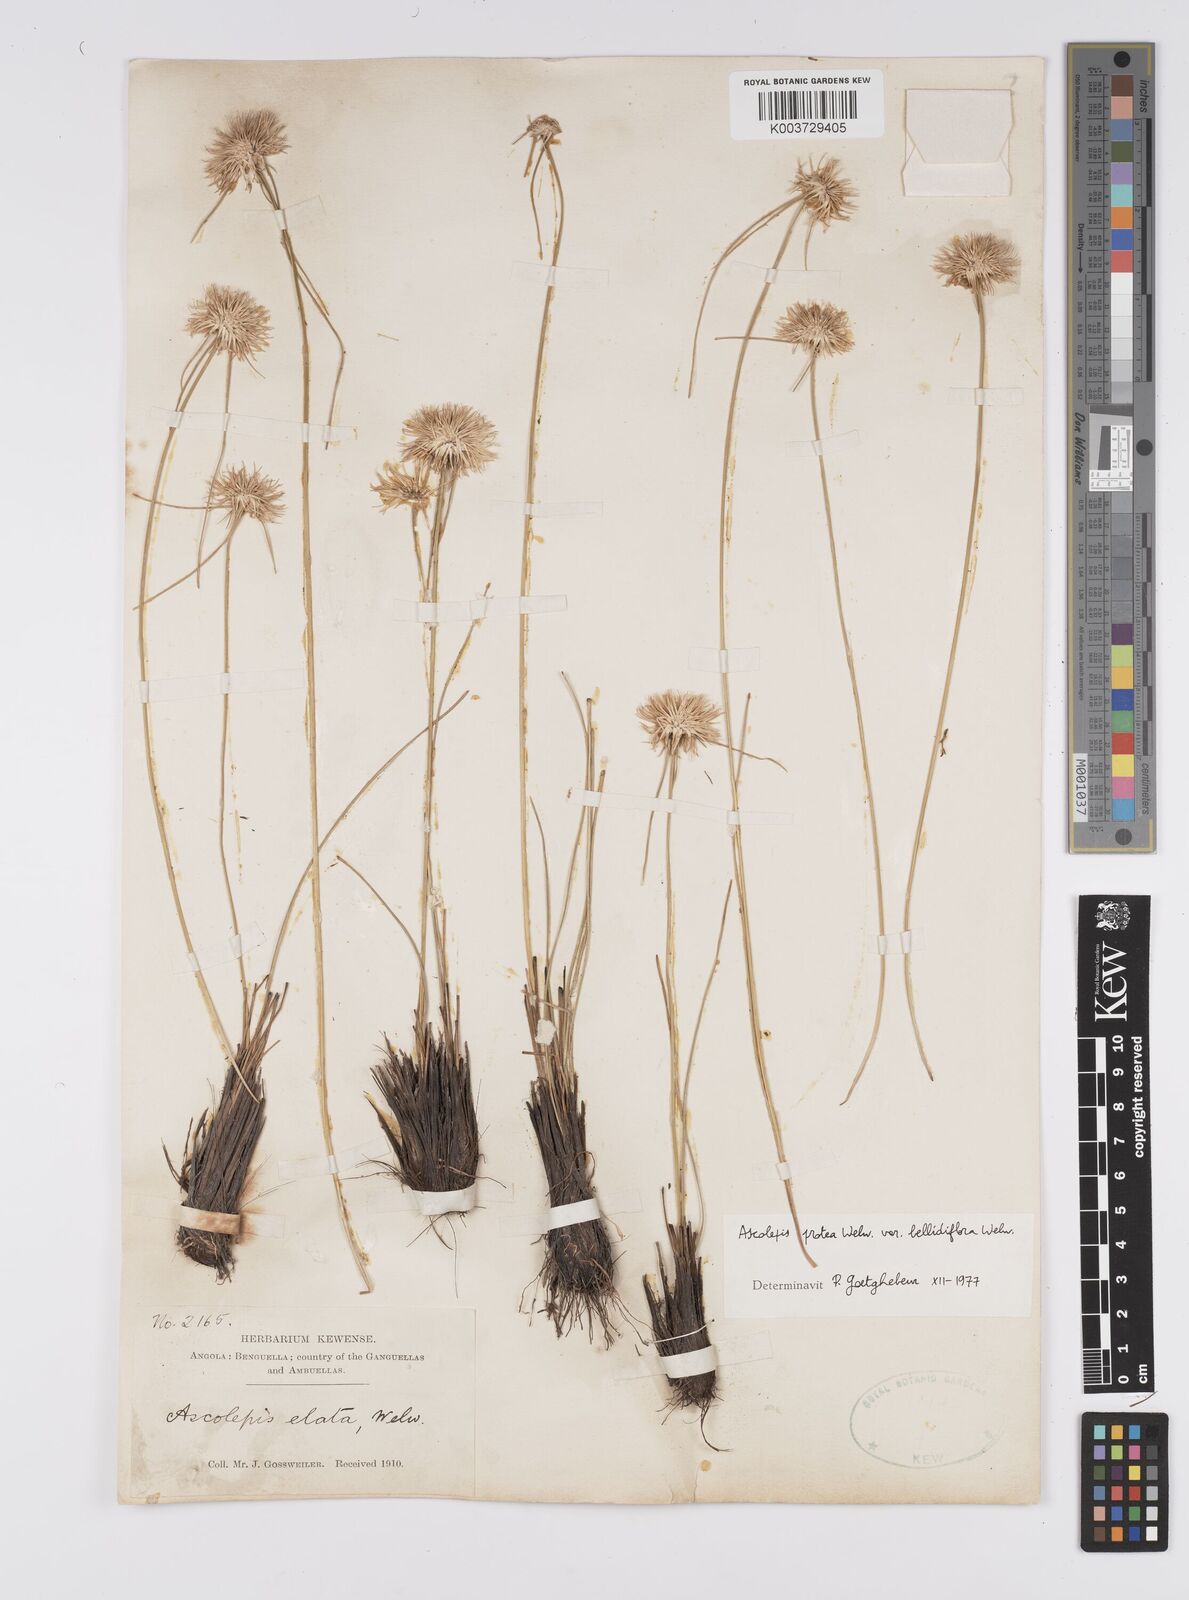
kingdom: Plantae
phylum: Tracheophyta
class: Liliopsida
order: Poales
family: Cyperaceae
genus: Cyperus
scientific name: Cyperus proteus
